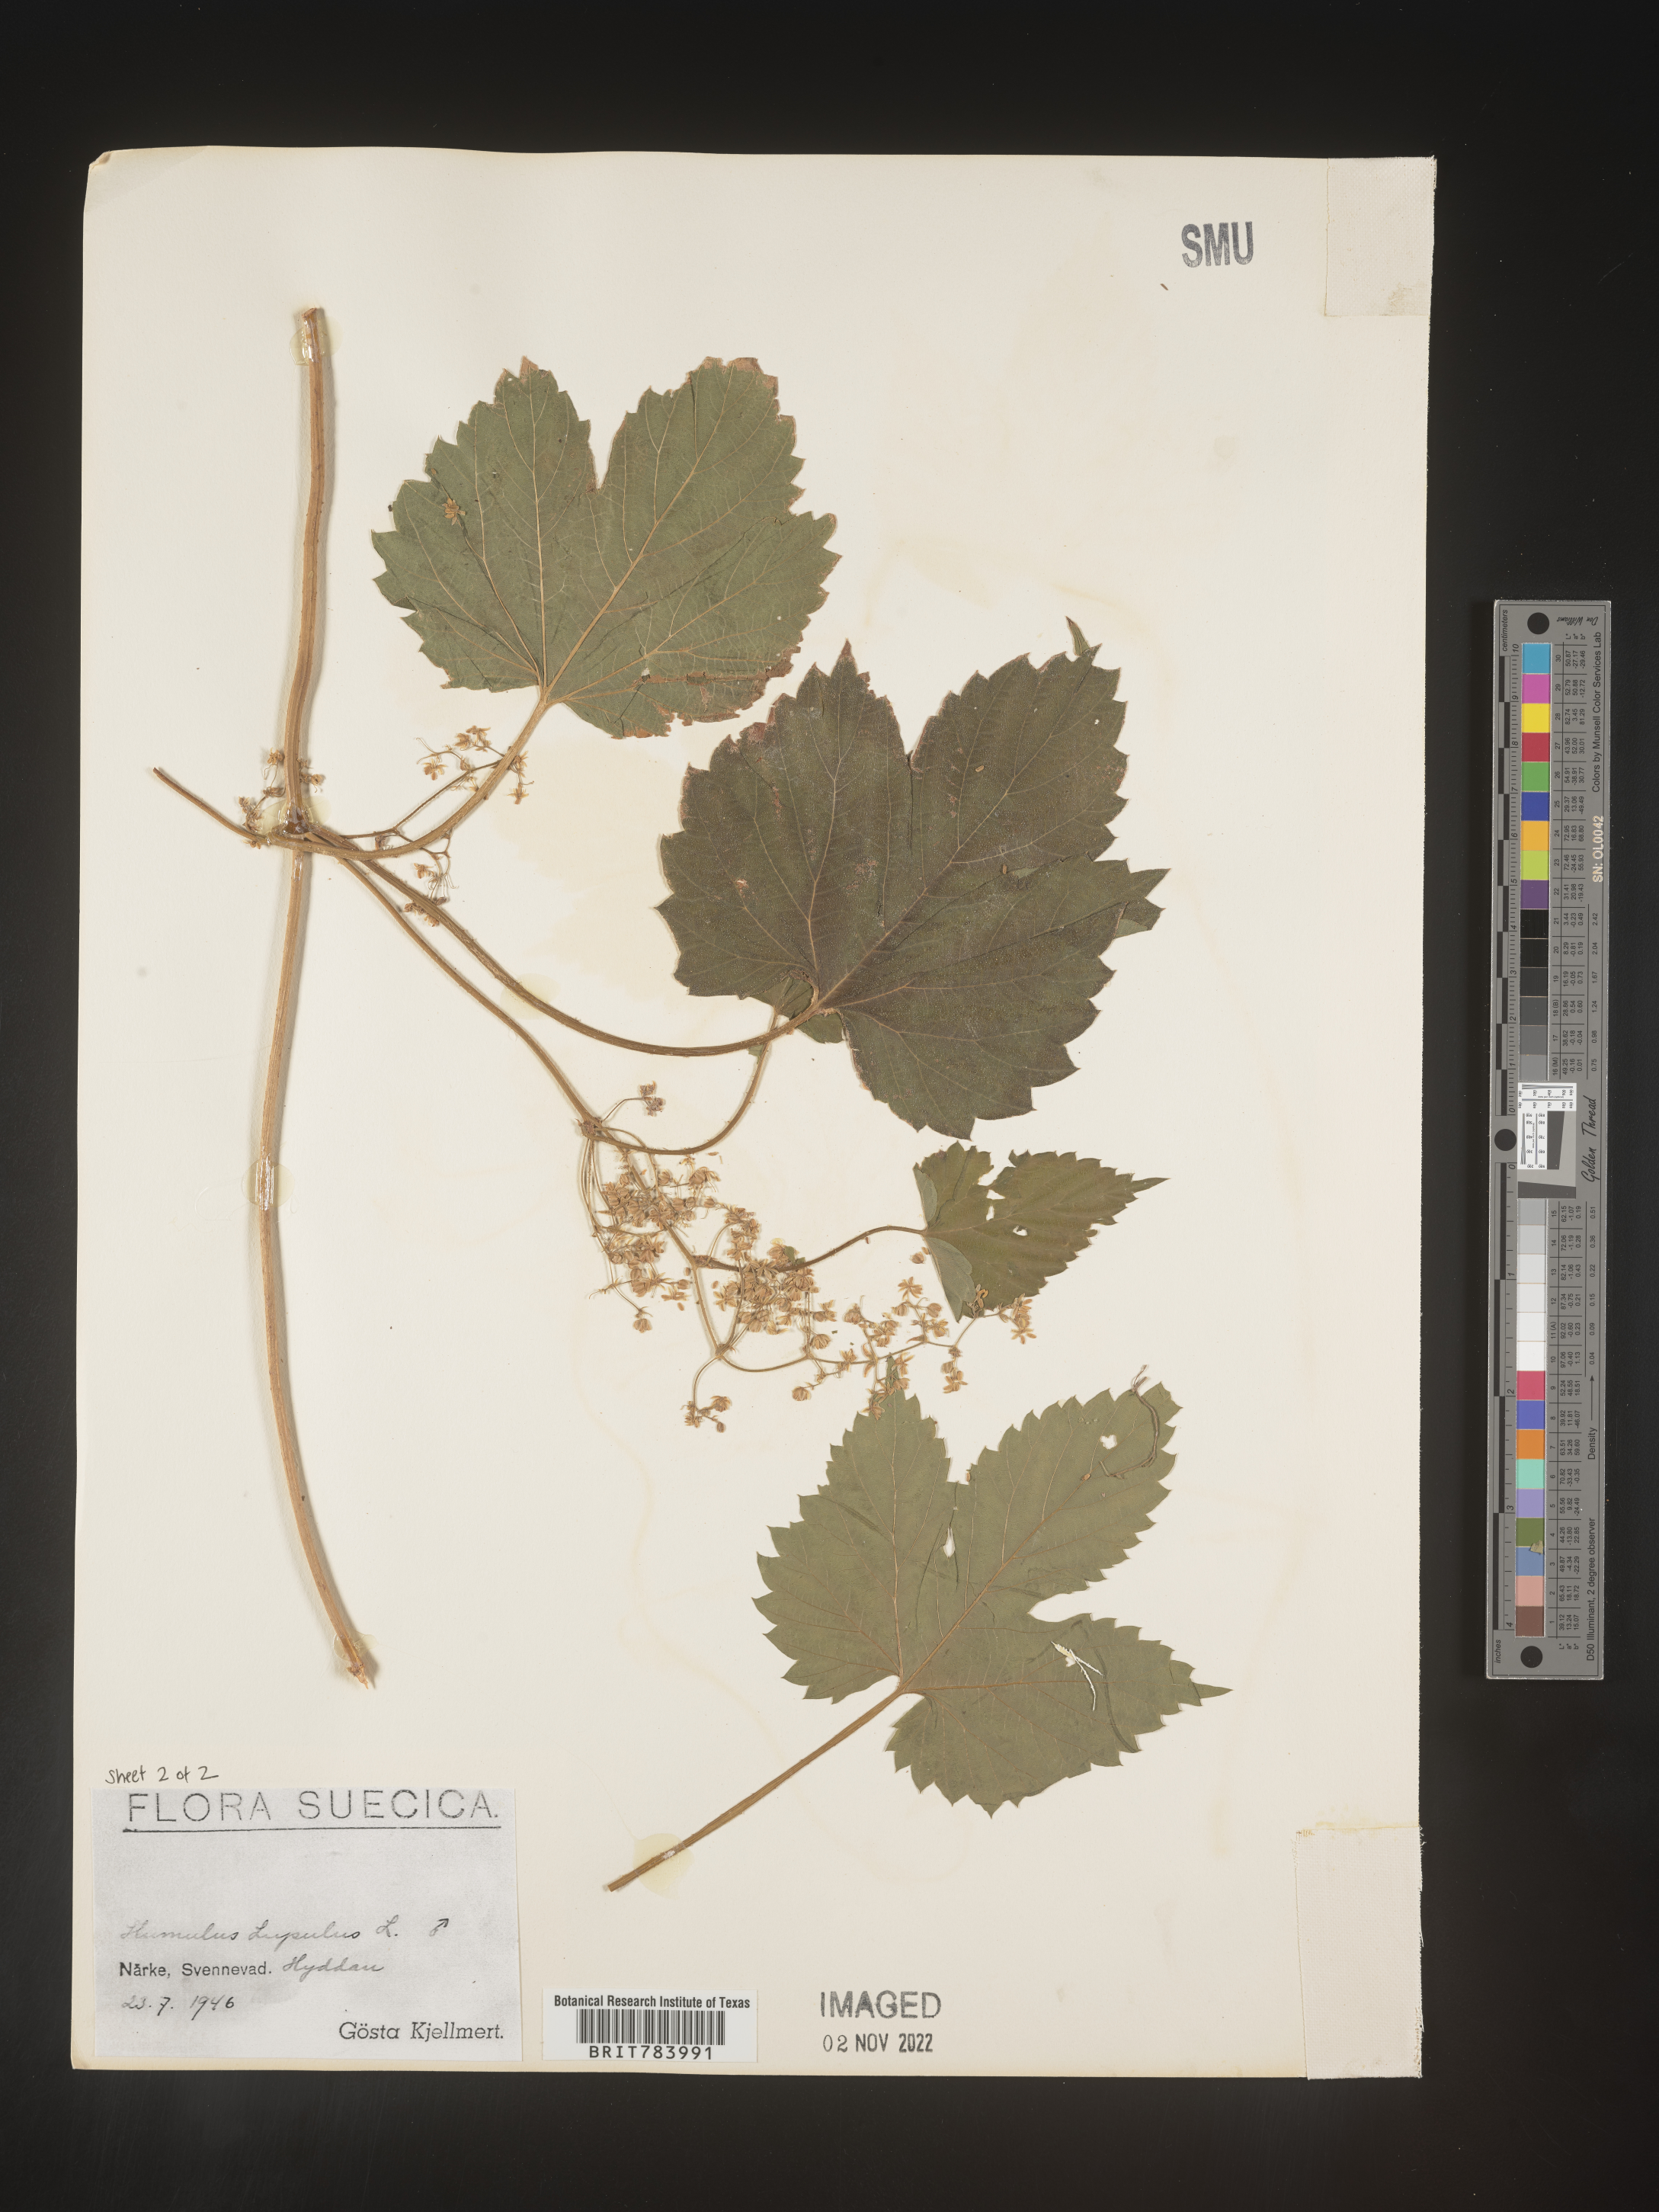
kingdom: Plantae
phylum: Tracheophyta
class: Magnoliopsida
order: Rosales
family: Cannabaceae
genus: Humulus
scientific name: Humulus
